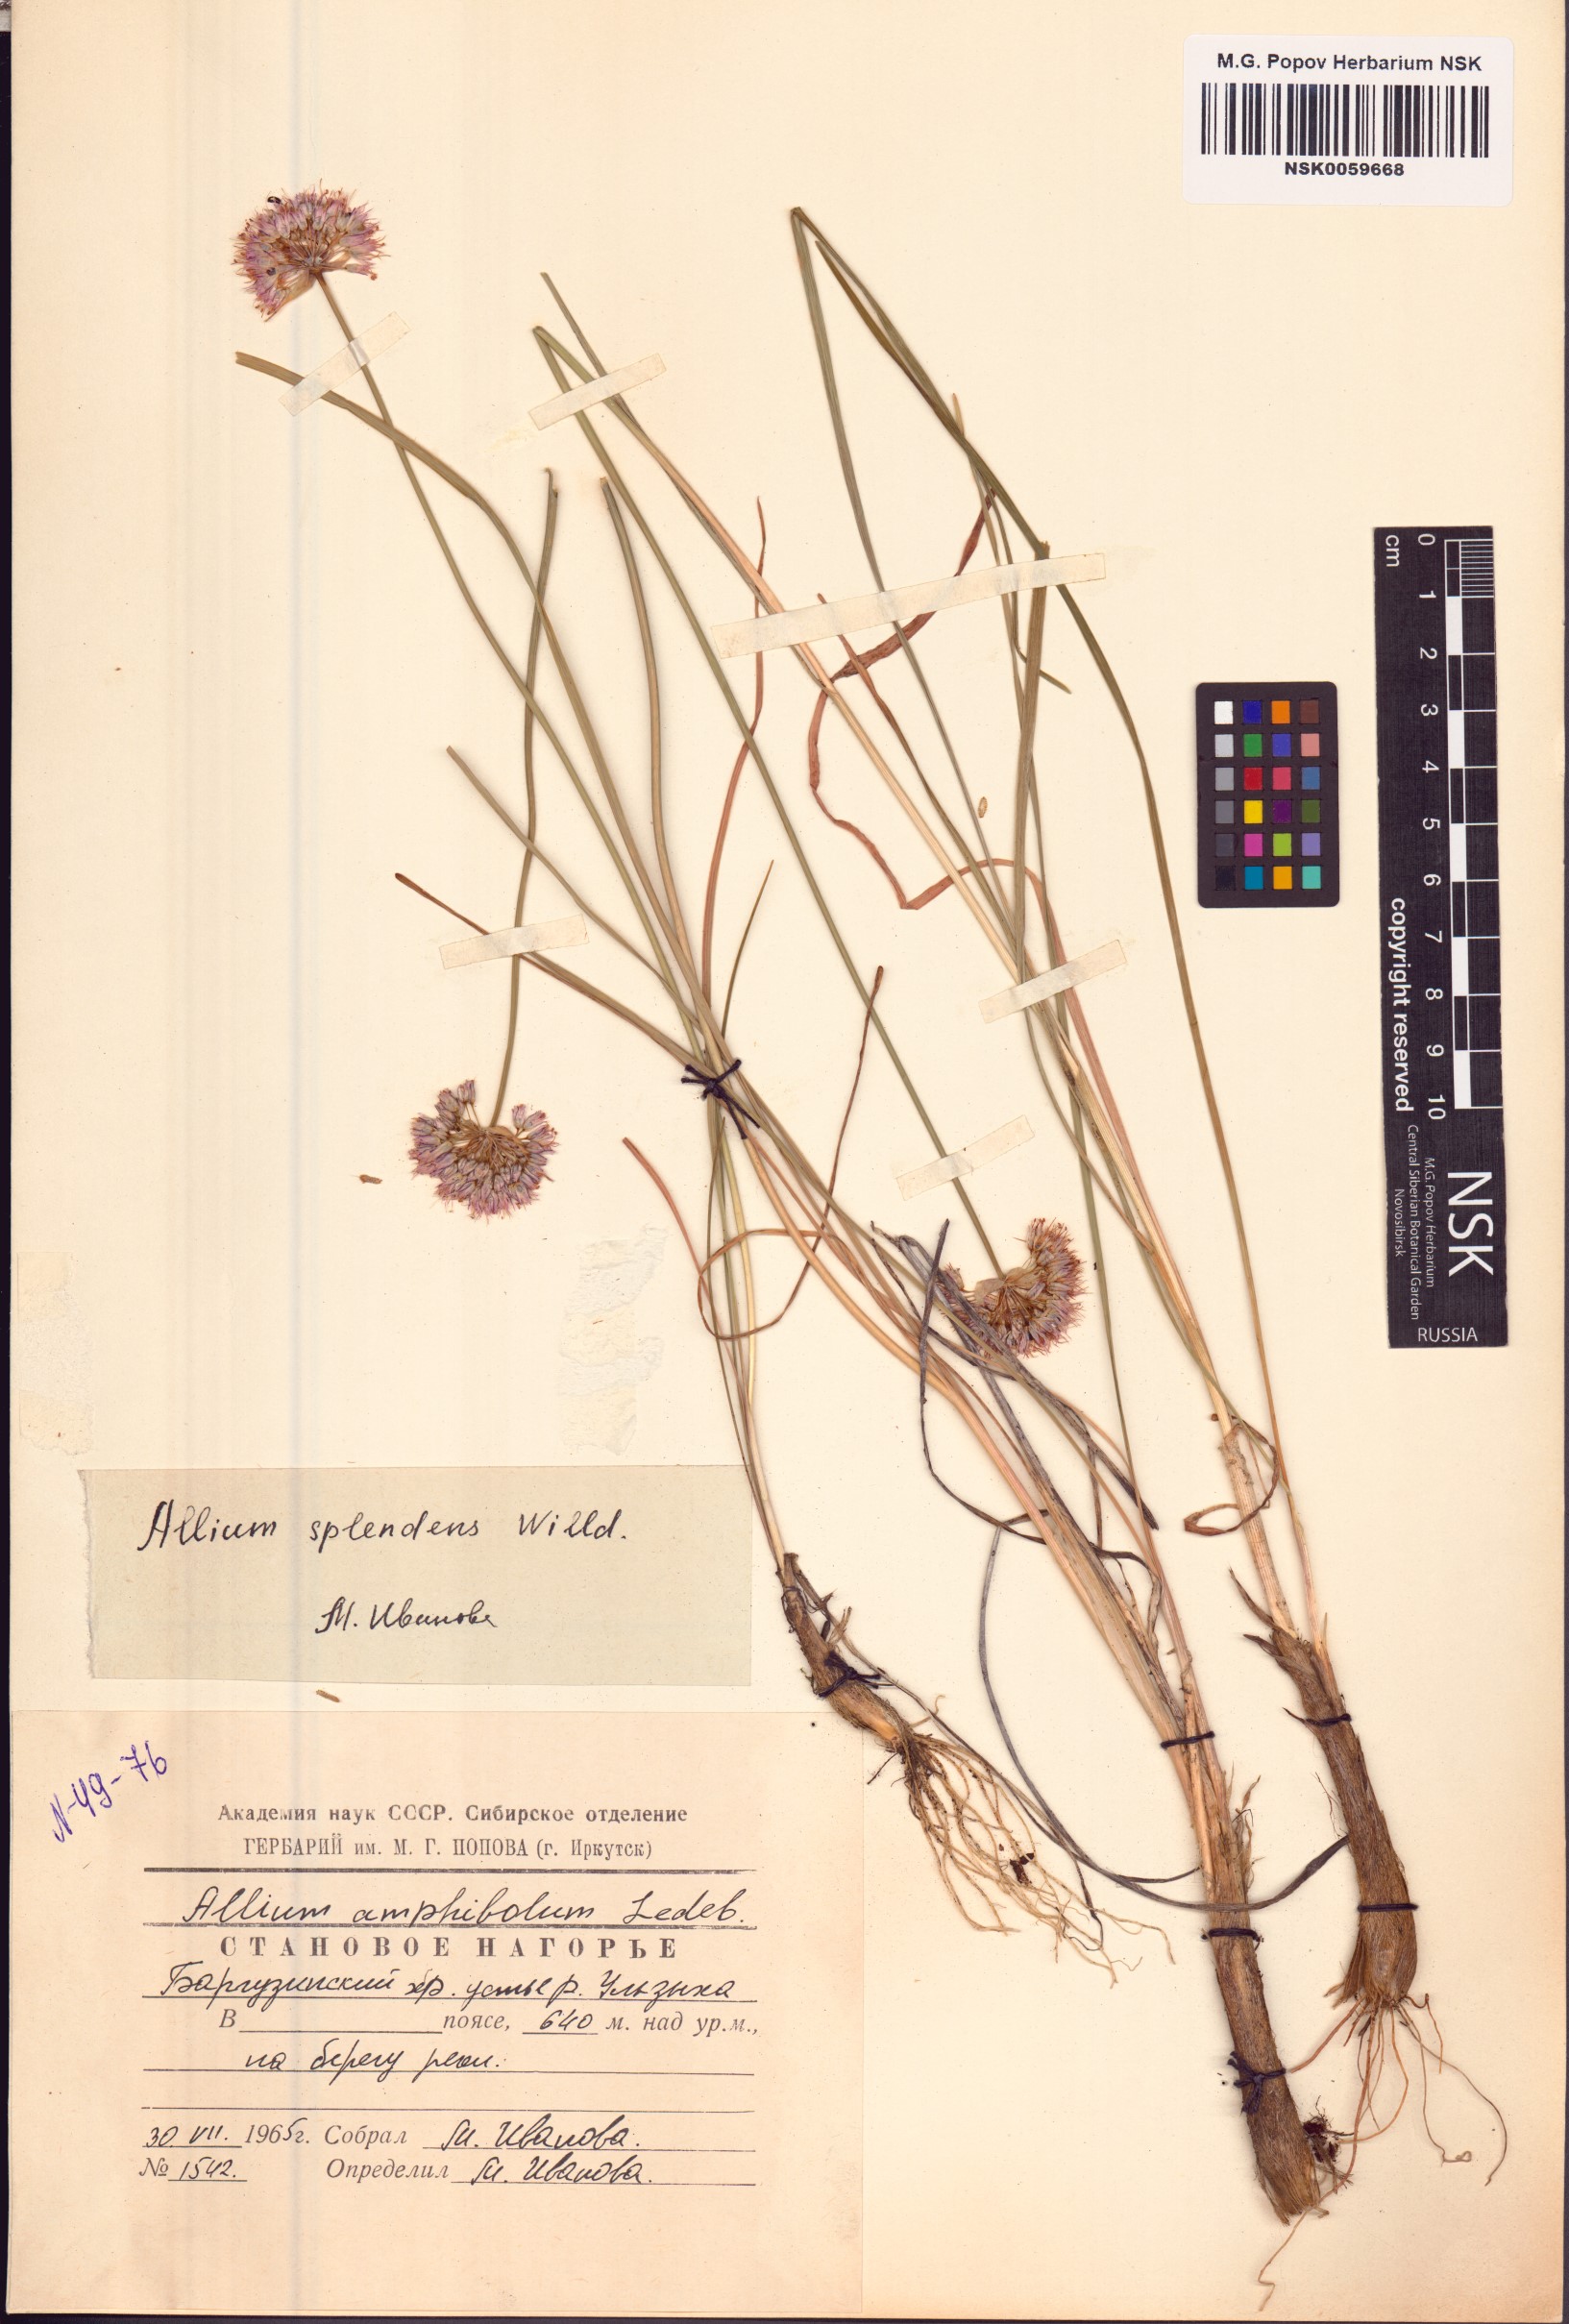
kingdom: Plantae
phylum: Tracheophyta
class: Liliopsida
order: Asparagales
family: Amaryllidaceae
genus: Allium
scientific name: Allium splendens
